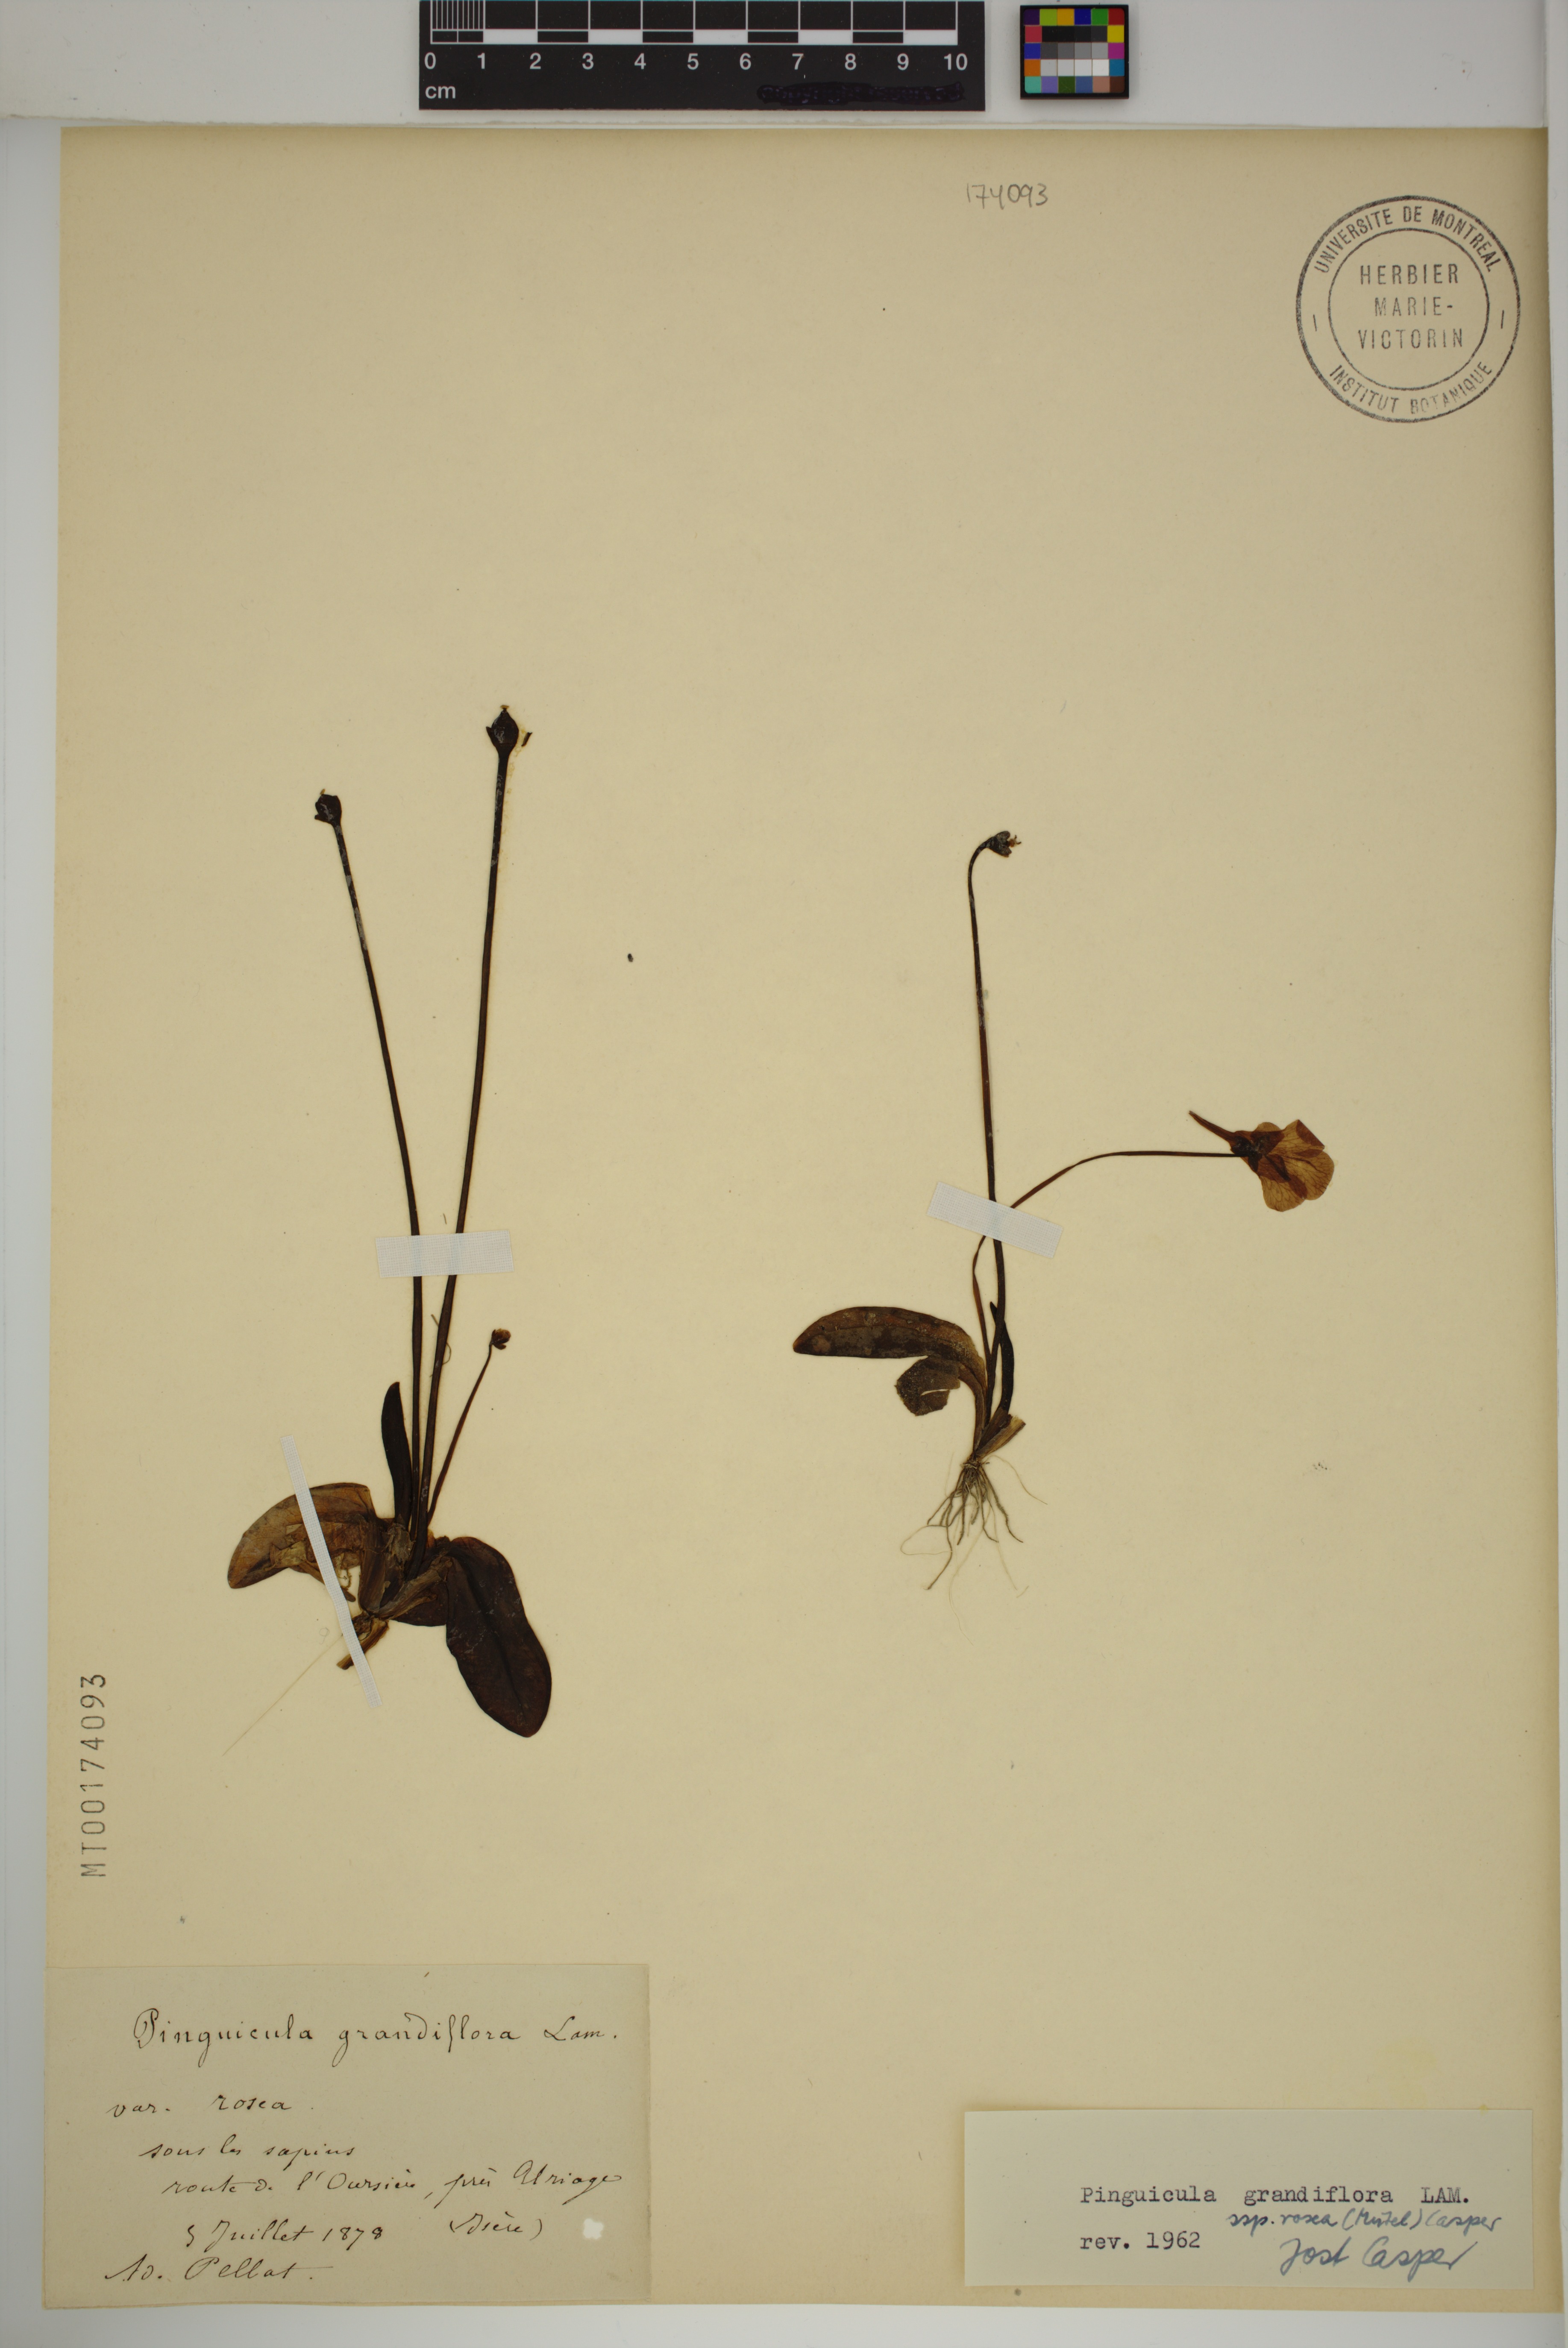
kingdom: Plantae
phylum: Tracheophyta
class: Magnoliopsida
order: Lamiales
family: Lentibulariaceae
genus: Pinguicula
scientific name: Pinguicula grandiflora
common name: Large-flowered butterwort
